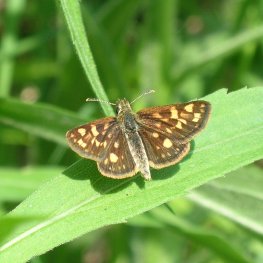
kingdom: Animalia
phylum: Arthropoda
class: Insecta
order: Lepidoptera
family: Hesperiidae
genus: Carterocephalus
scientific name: Carterocephalus palaemon
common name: Chequered Skipper
